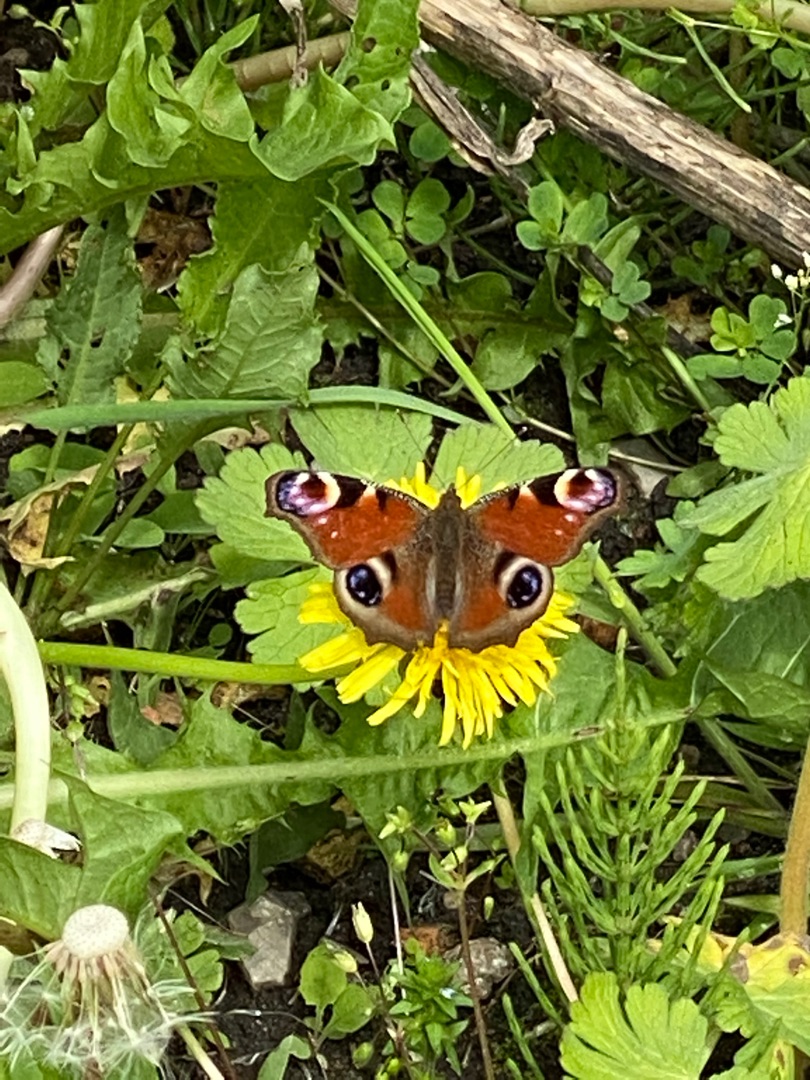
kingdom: Animalia
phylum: Arthropoda
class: Insecta
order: Lepidoptera
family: Nymphalidae
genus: Aglais
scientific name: Aglais io
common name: Dagpåfugleøje
